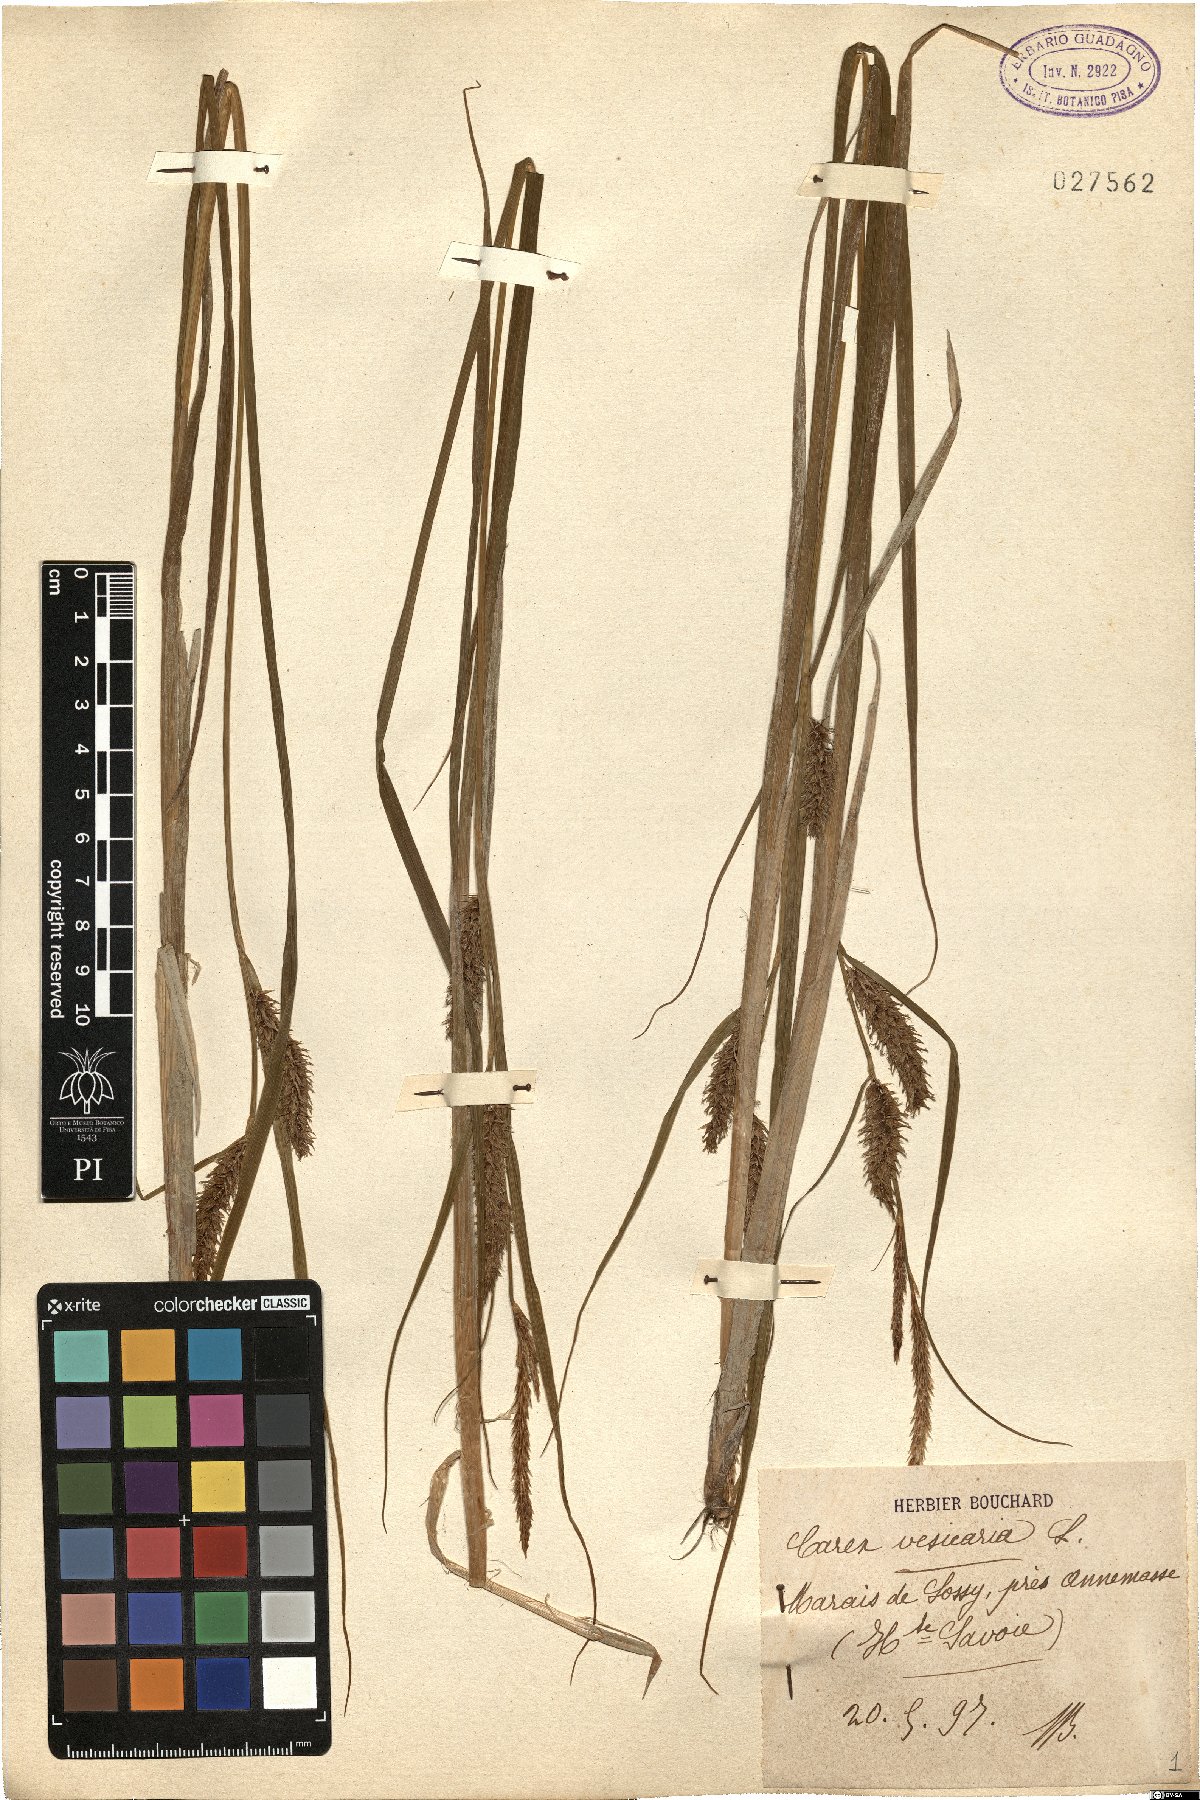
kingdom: Plantae
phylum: Tracheophyta
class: Liliopsida
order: Poales
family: Cyperaceae
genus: Carex
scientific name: Carex vesicaria
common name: Bladder-sedge
